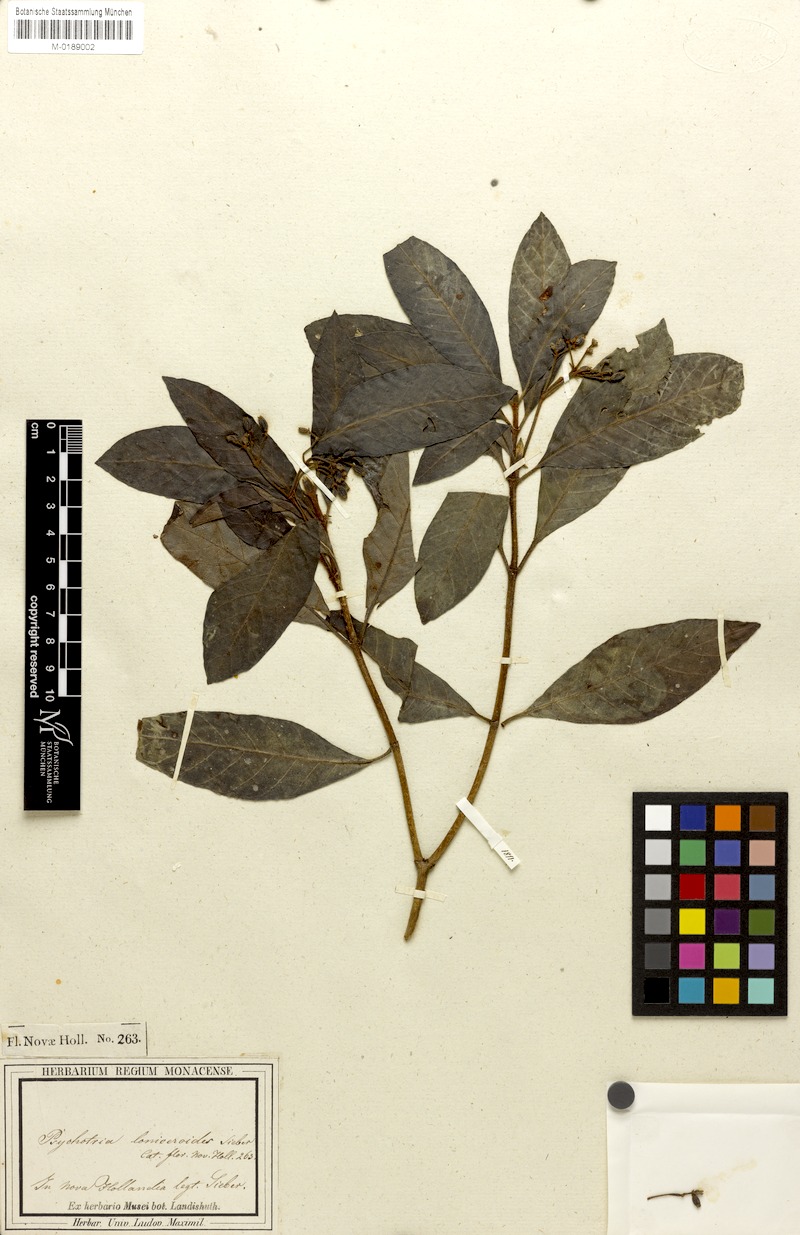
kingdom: Plantae
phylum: Tracheophyta
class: Magnoliopsida
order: Gentianales
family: Rubiaceae
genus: Psychotria
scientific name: Psychotria loniceroides
